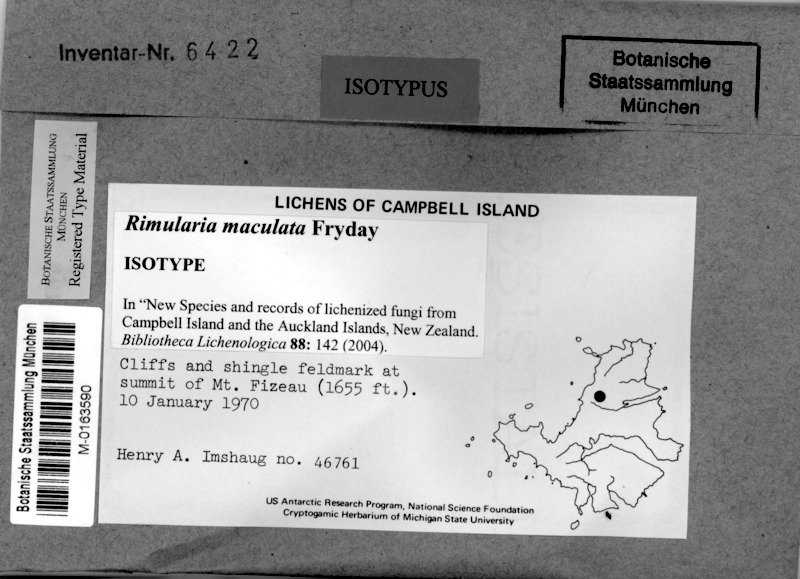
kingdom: Fungi
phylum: Ascomycota
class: Lecanoromycetes
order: Baeomycetales
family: Trapeliaceae
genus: Lambiella
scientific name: Lambiella maculata
